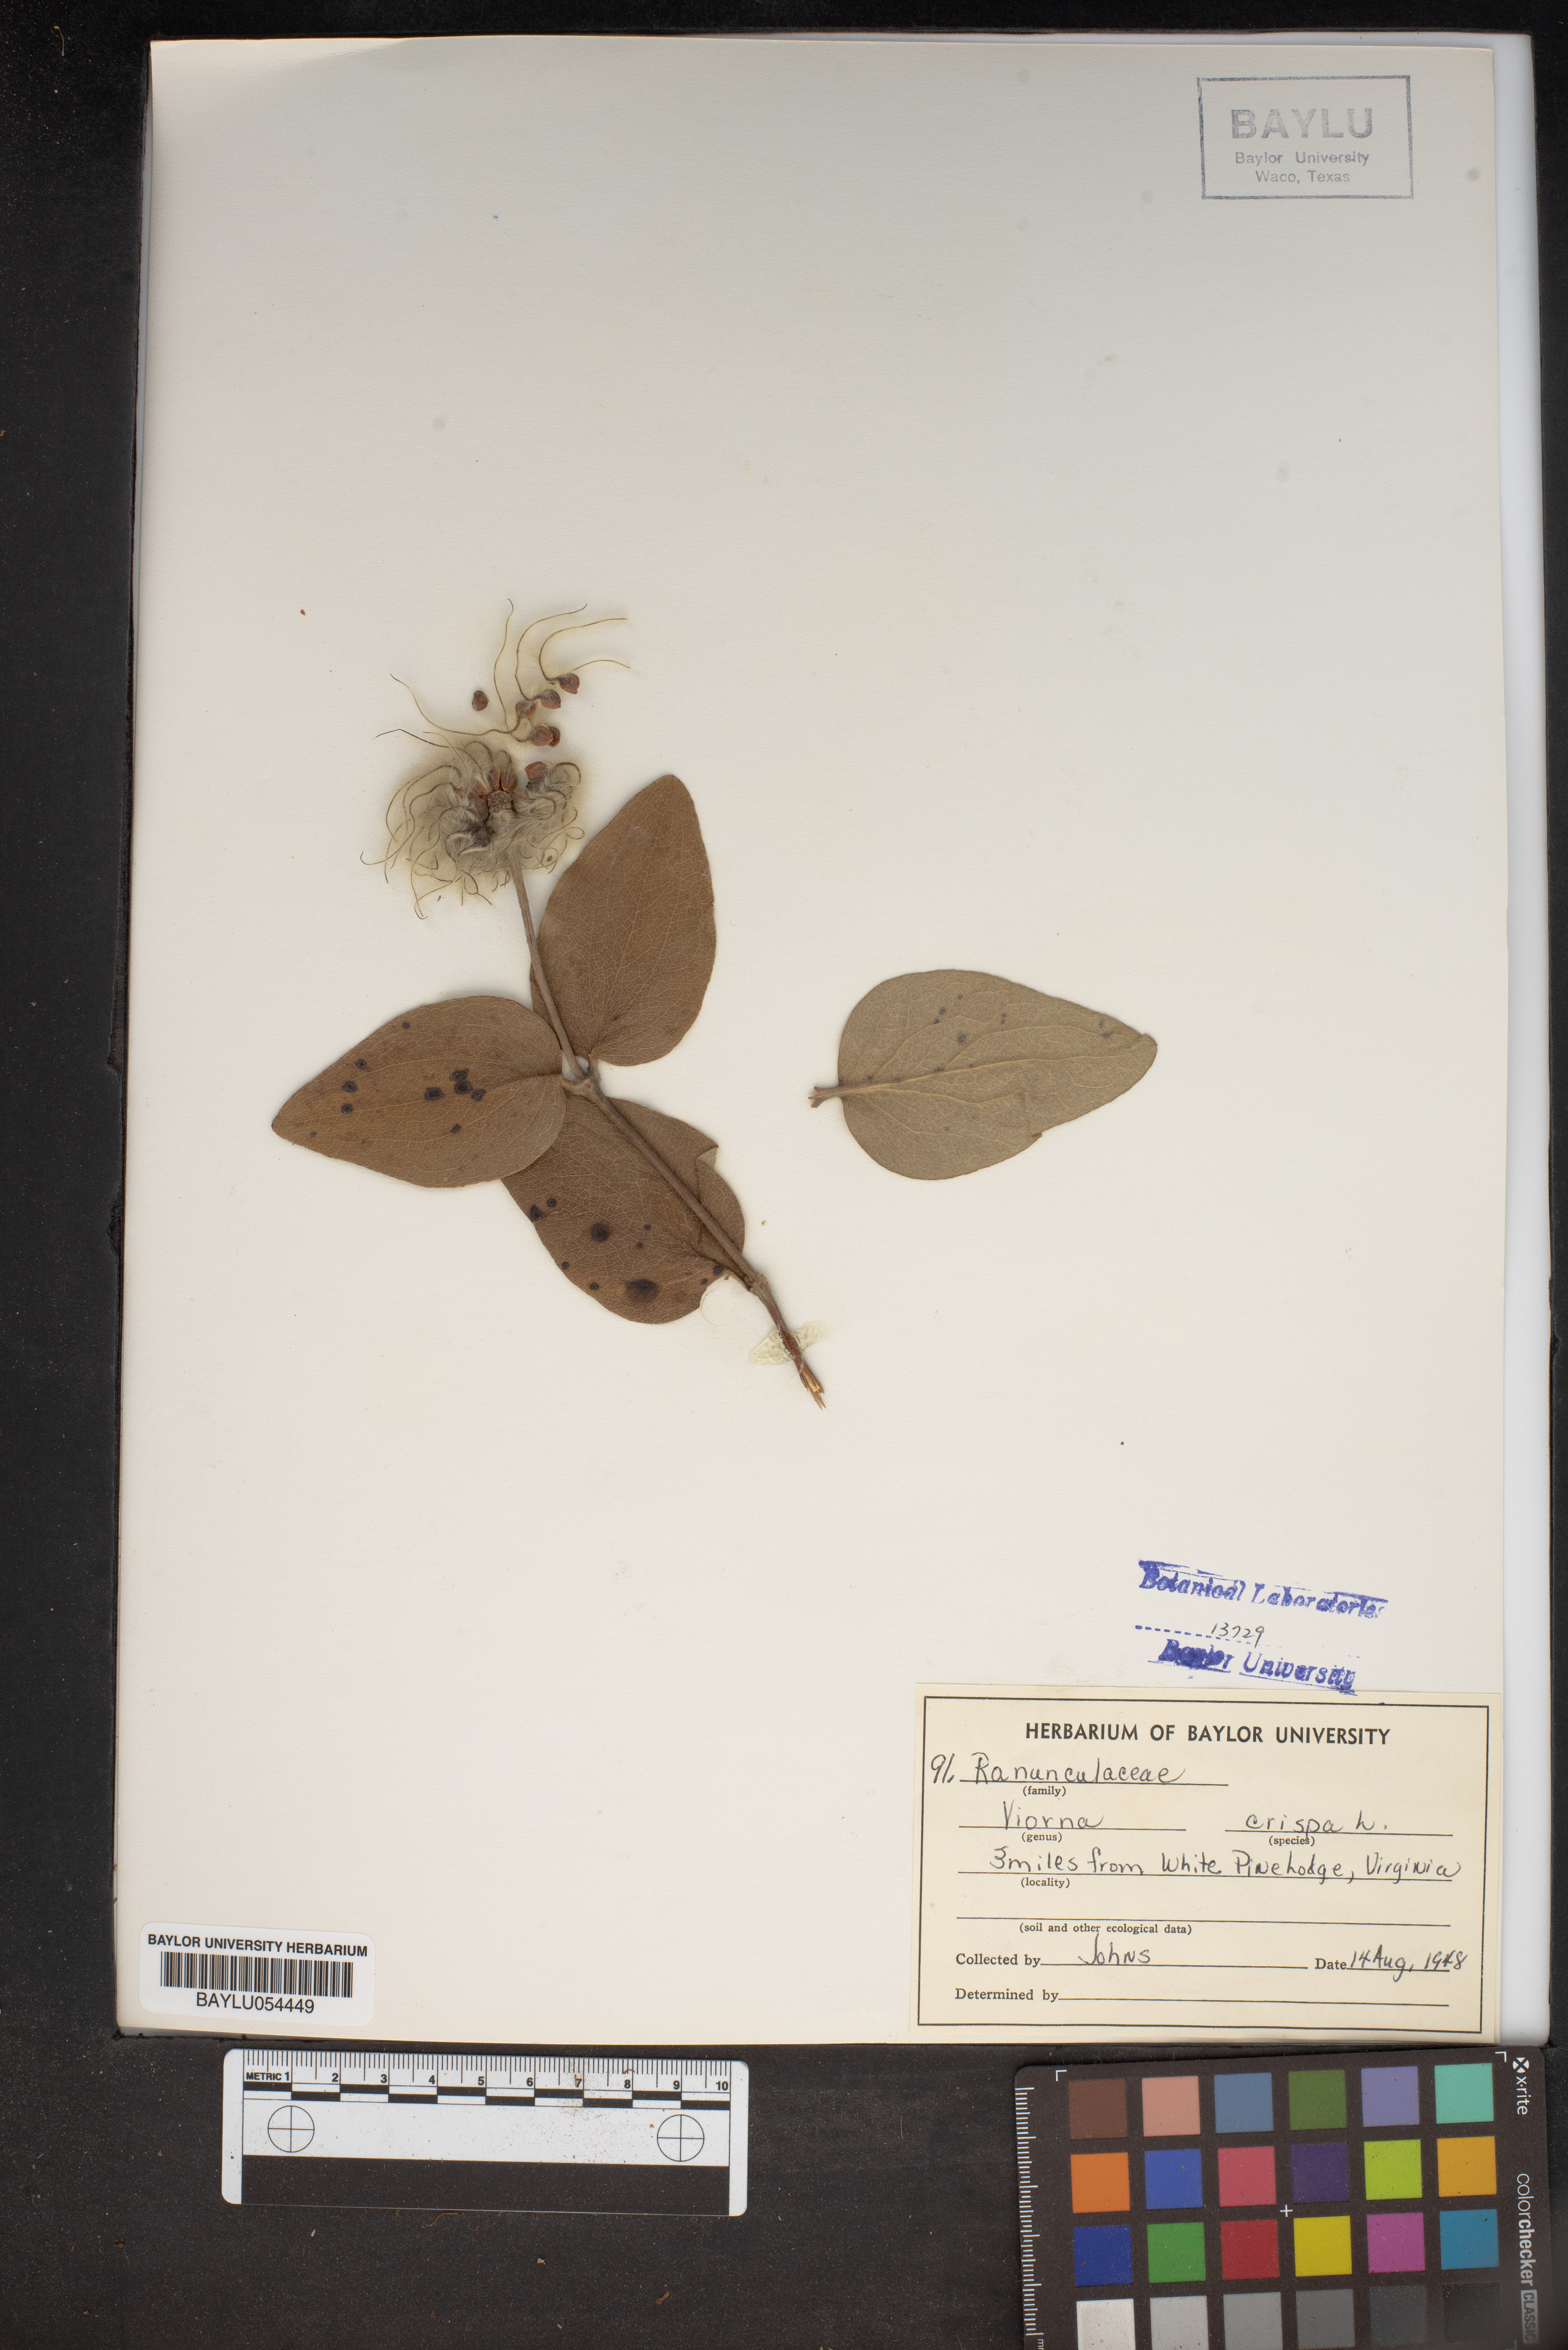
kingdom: Plantae
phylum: Tracheophyta
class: Magnoliopsida
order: Ranunculales
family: Ranunculaceae
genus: Clematis
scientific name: Clematis crispa
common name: Curly clematis
